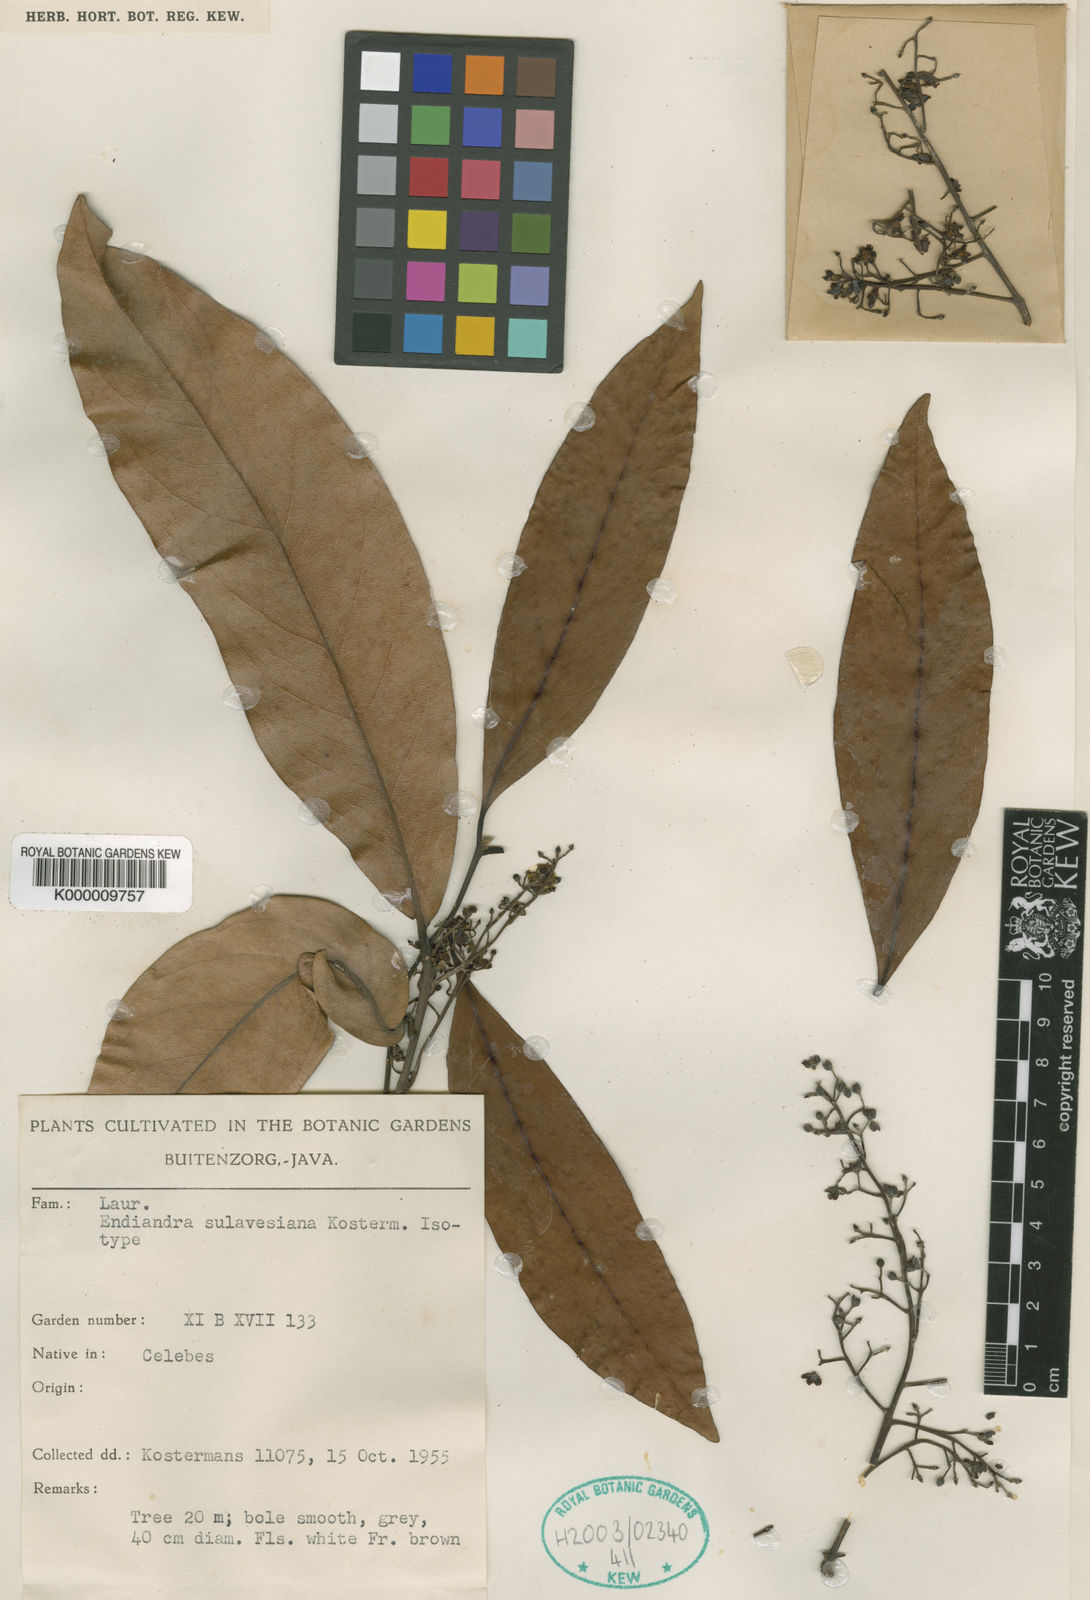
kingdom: Plantae
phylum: Tracheophyta
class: Magnoliopsida
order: Laurales
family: Lauraceae
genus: Endiandra
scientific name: Endiandra sulavesiana
